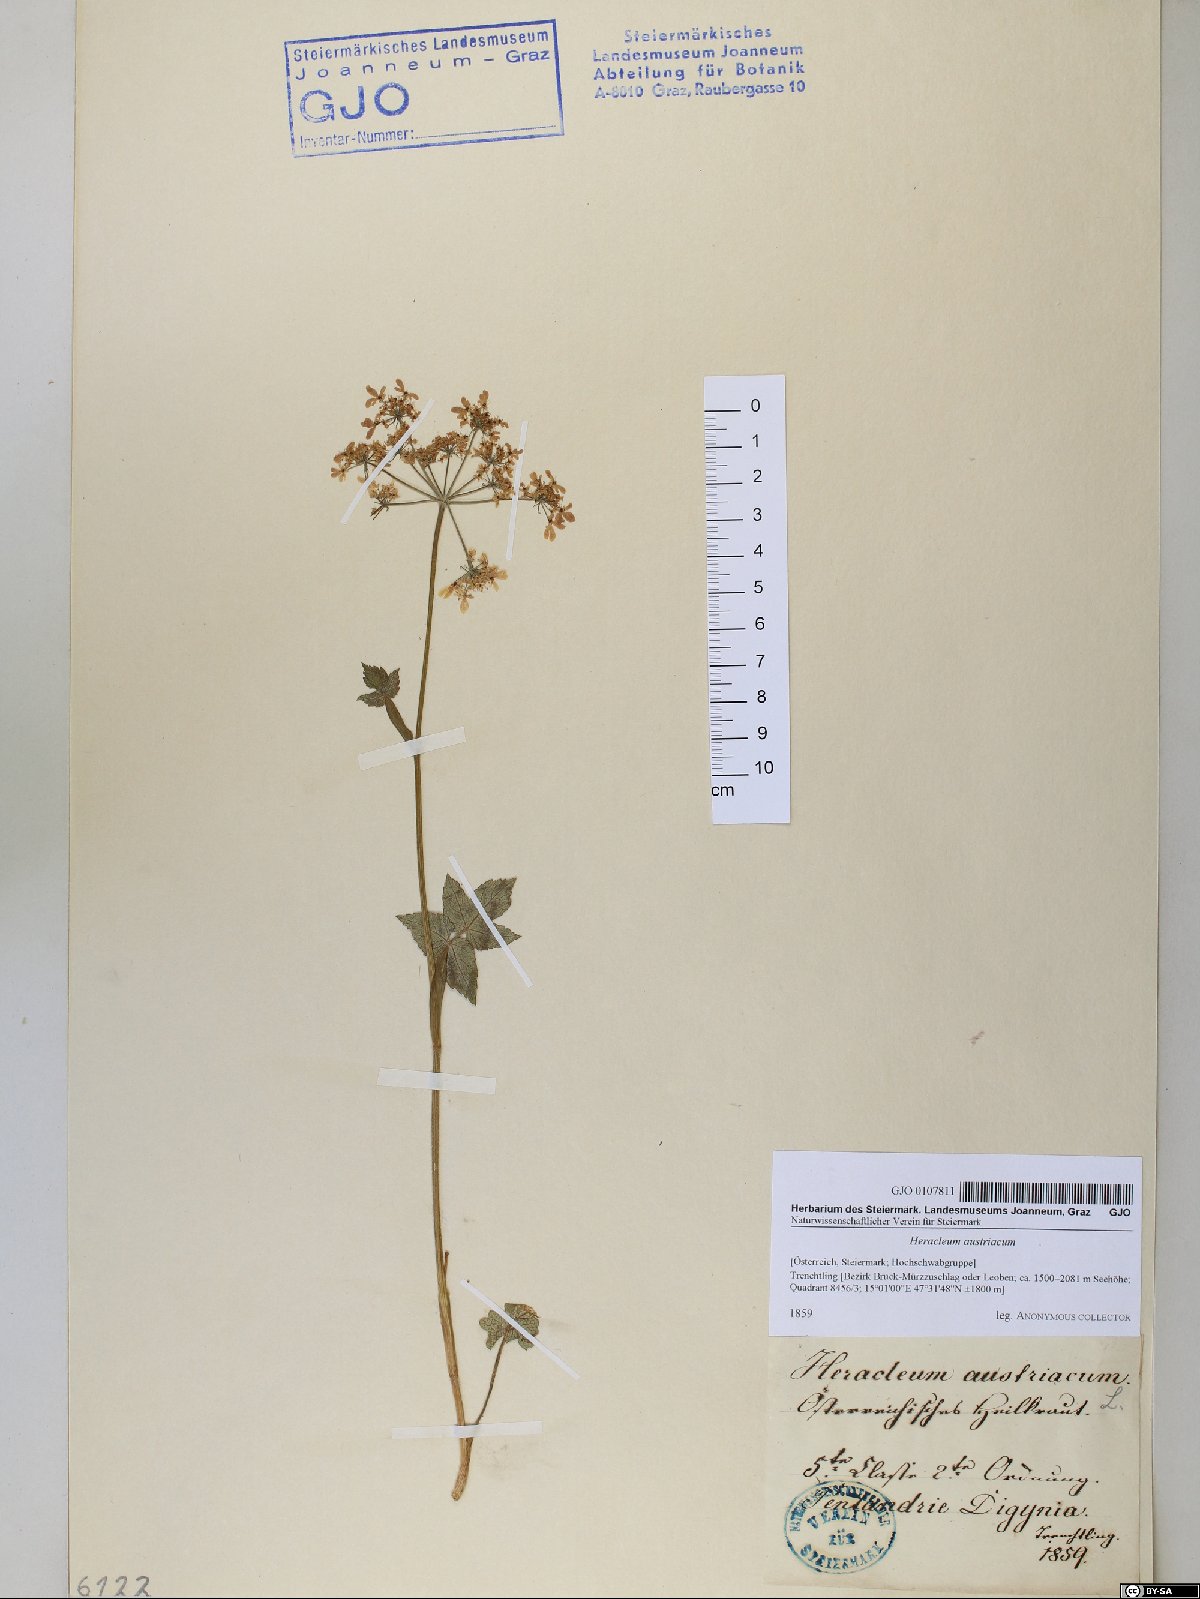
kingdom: Plantae
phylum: Tracheophyta
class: Magnoliopsida
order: Apiales
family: Apiaceae
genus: Heracleum
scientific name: Heracleum austriacum
